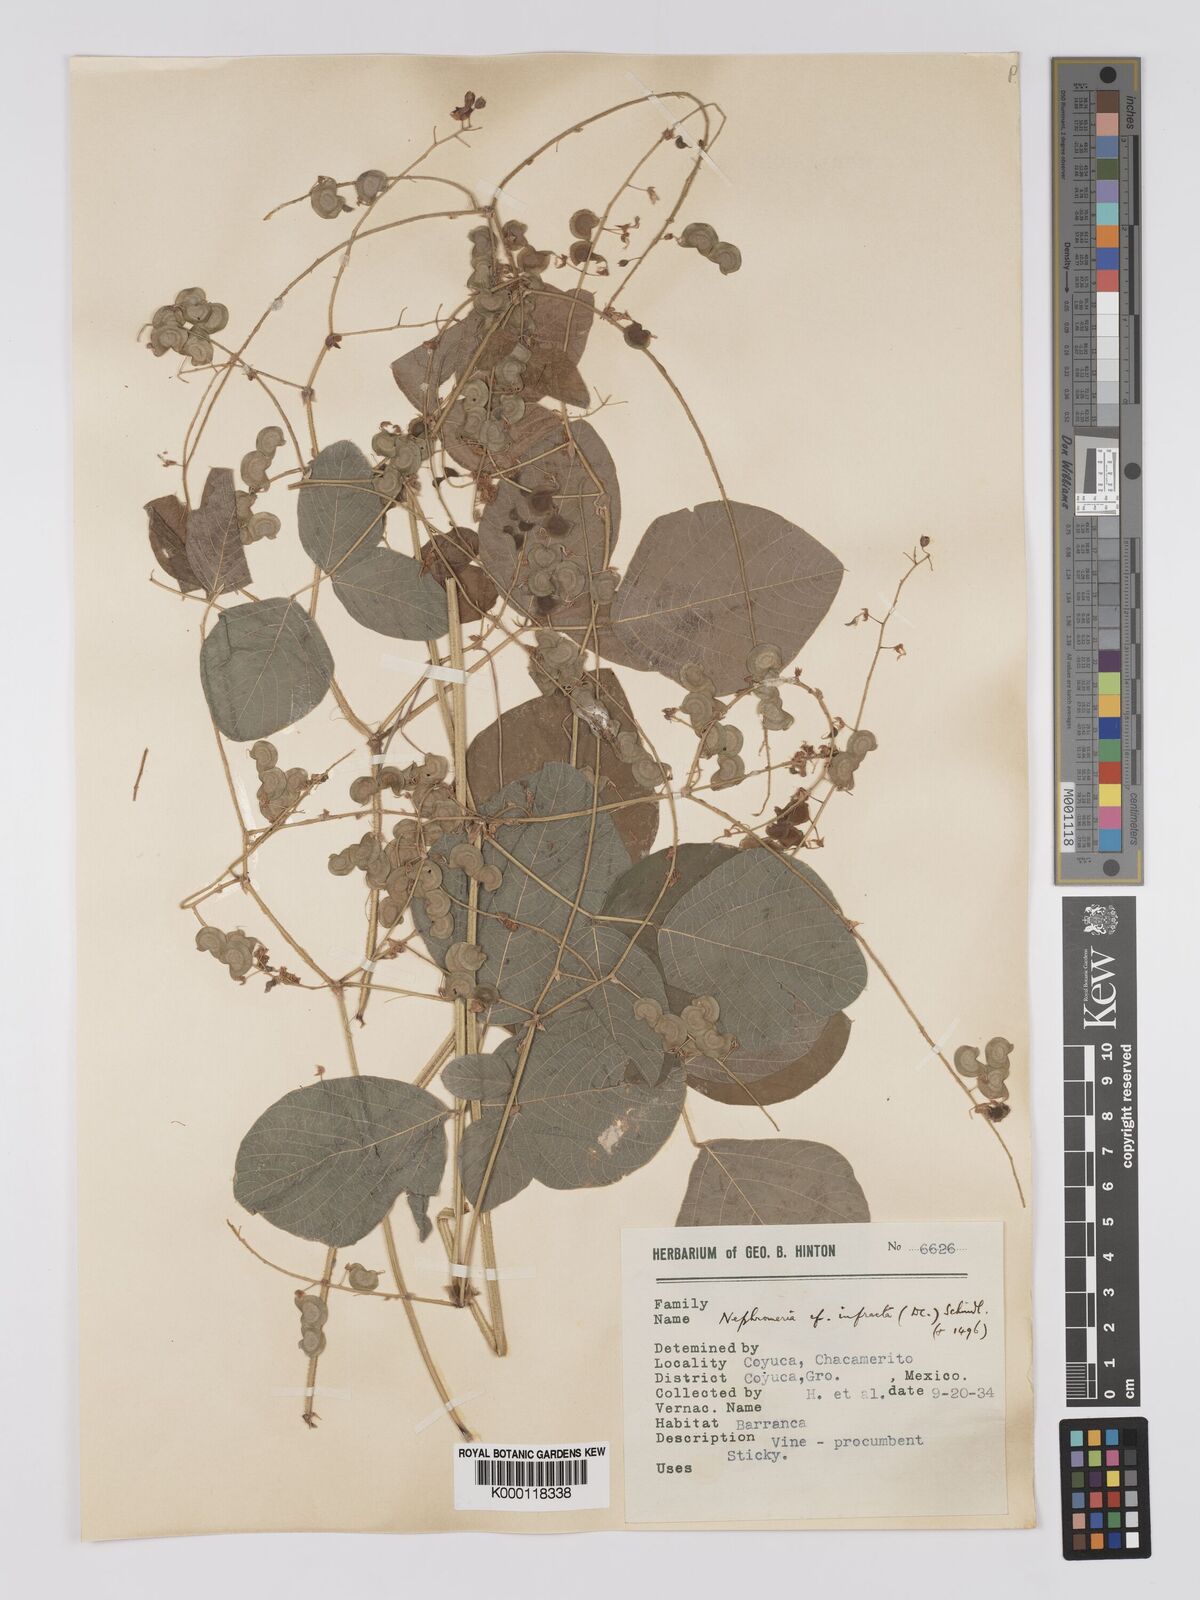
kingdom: Plantae
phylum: Tracheophyta
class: Magnoliopsida
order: Fabales
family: Fabaceae
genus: Desmodium
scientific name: Desmodium infractum
